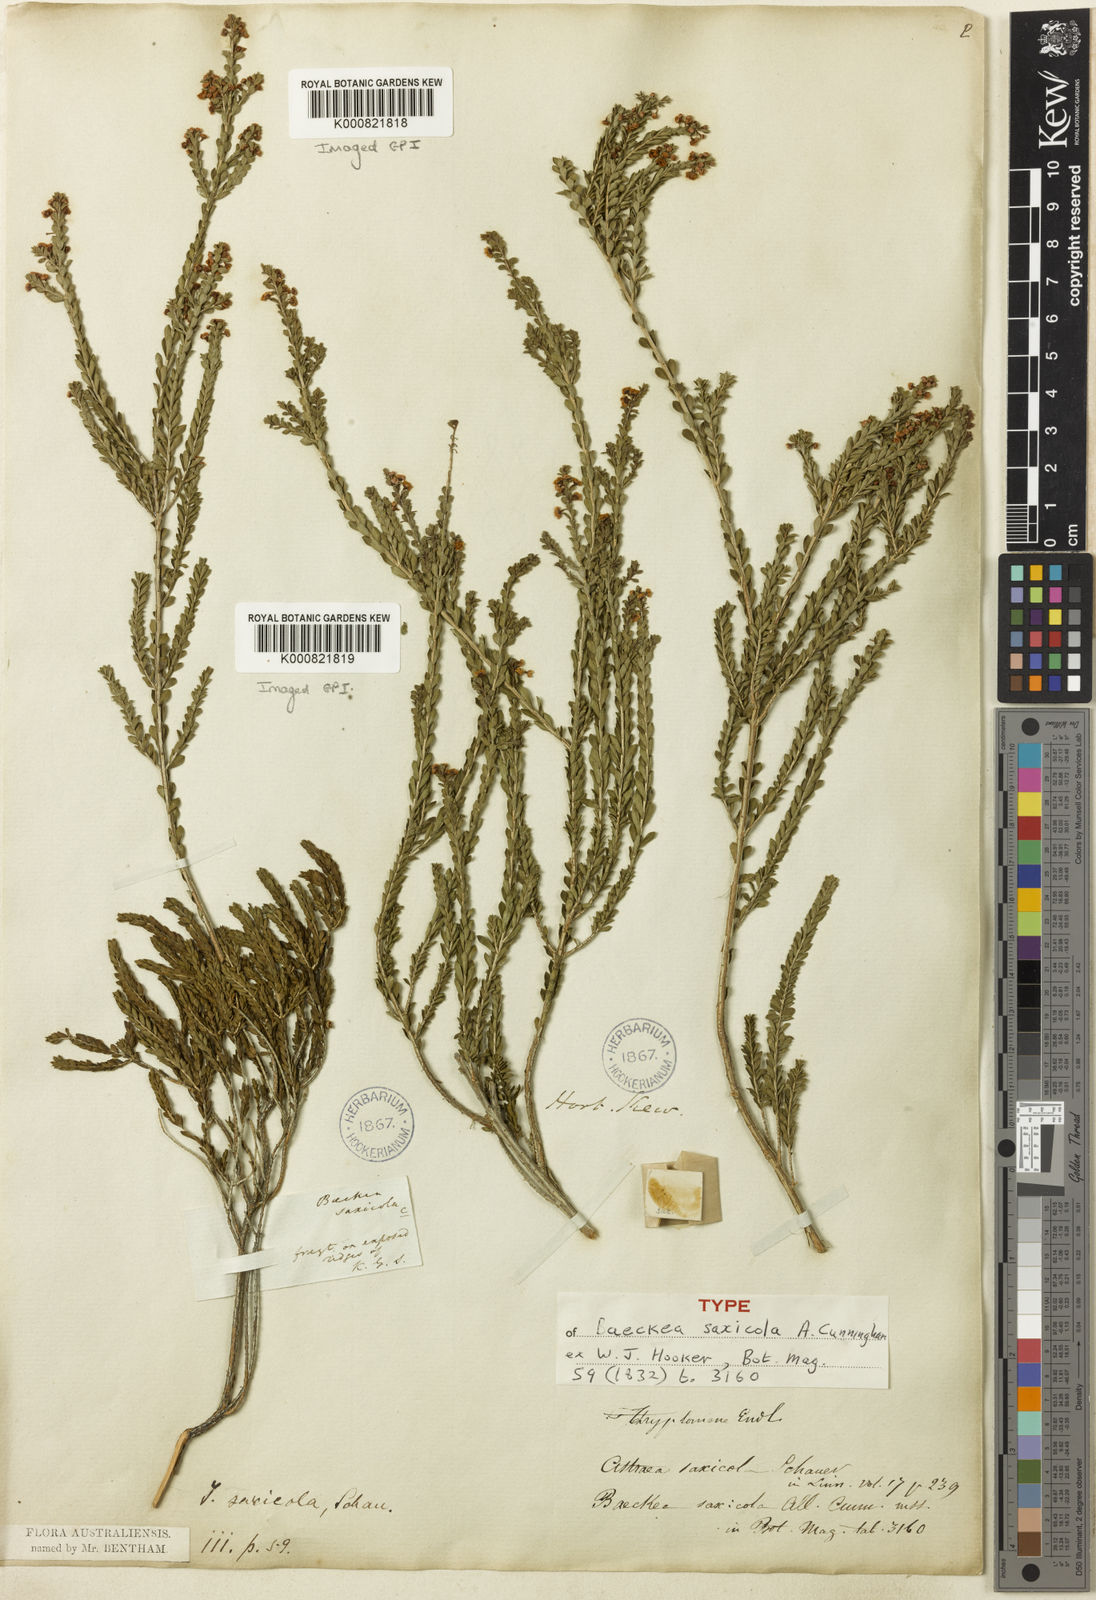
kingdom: Plantae
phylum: Tracheophyta
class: Magnoliopsida
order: Myrtales
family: Myrtaceae
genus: Thryptomene
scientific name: Thryptomene saxicola
